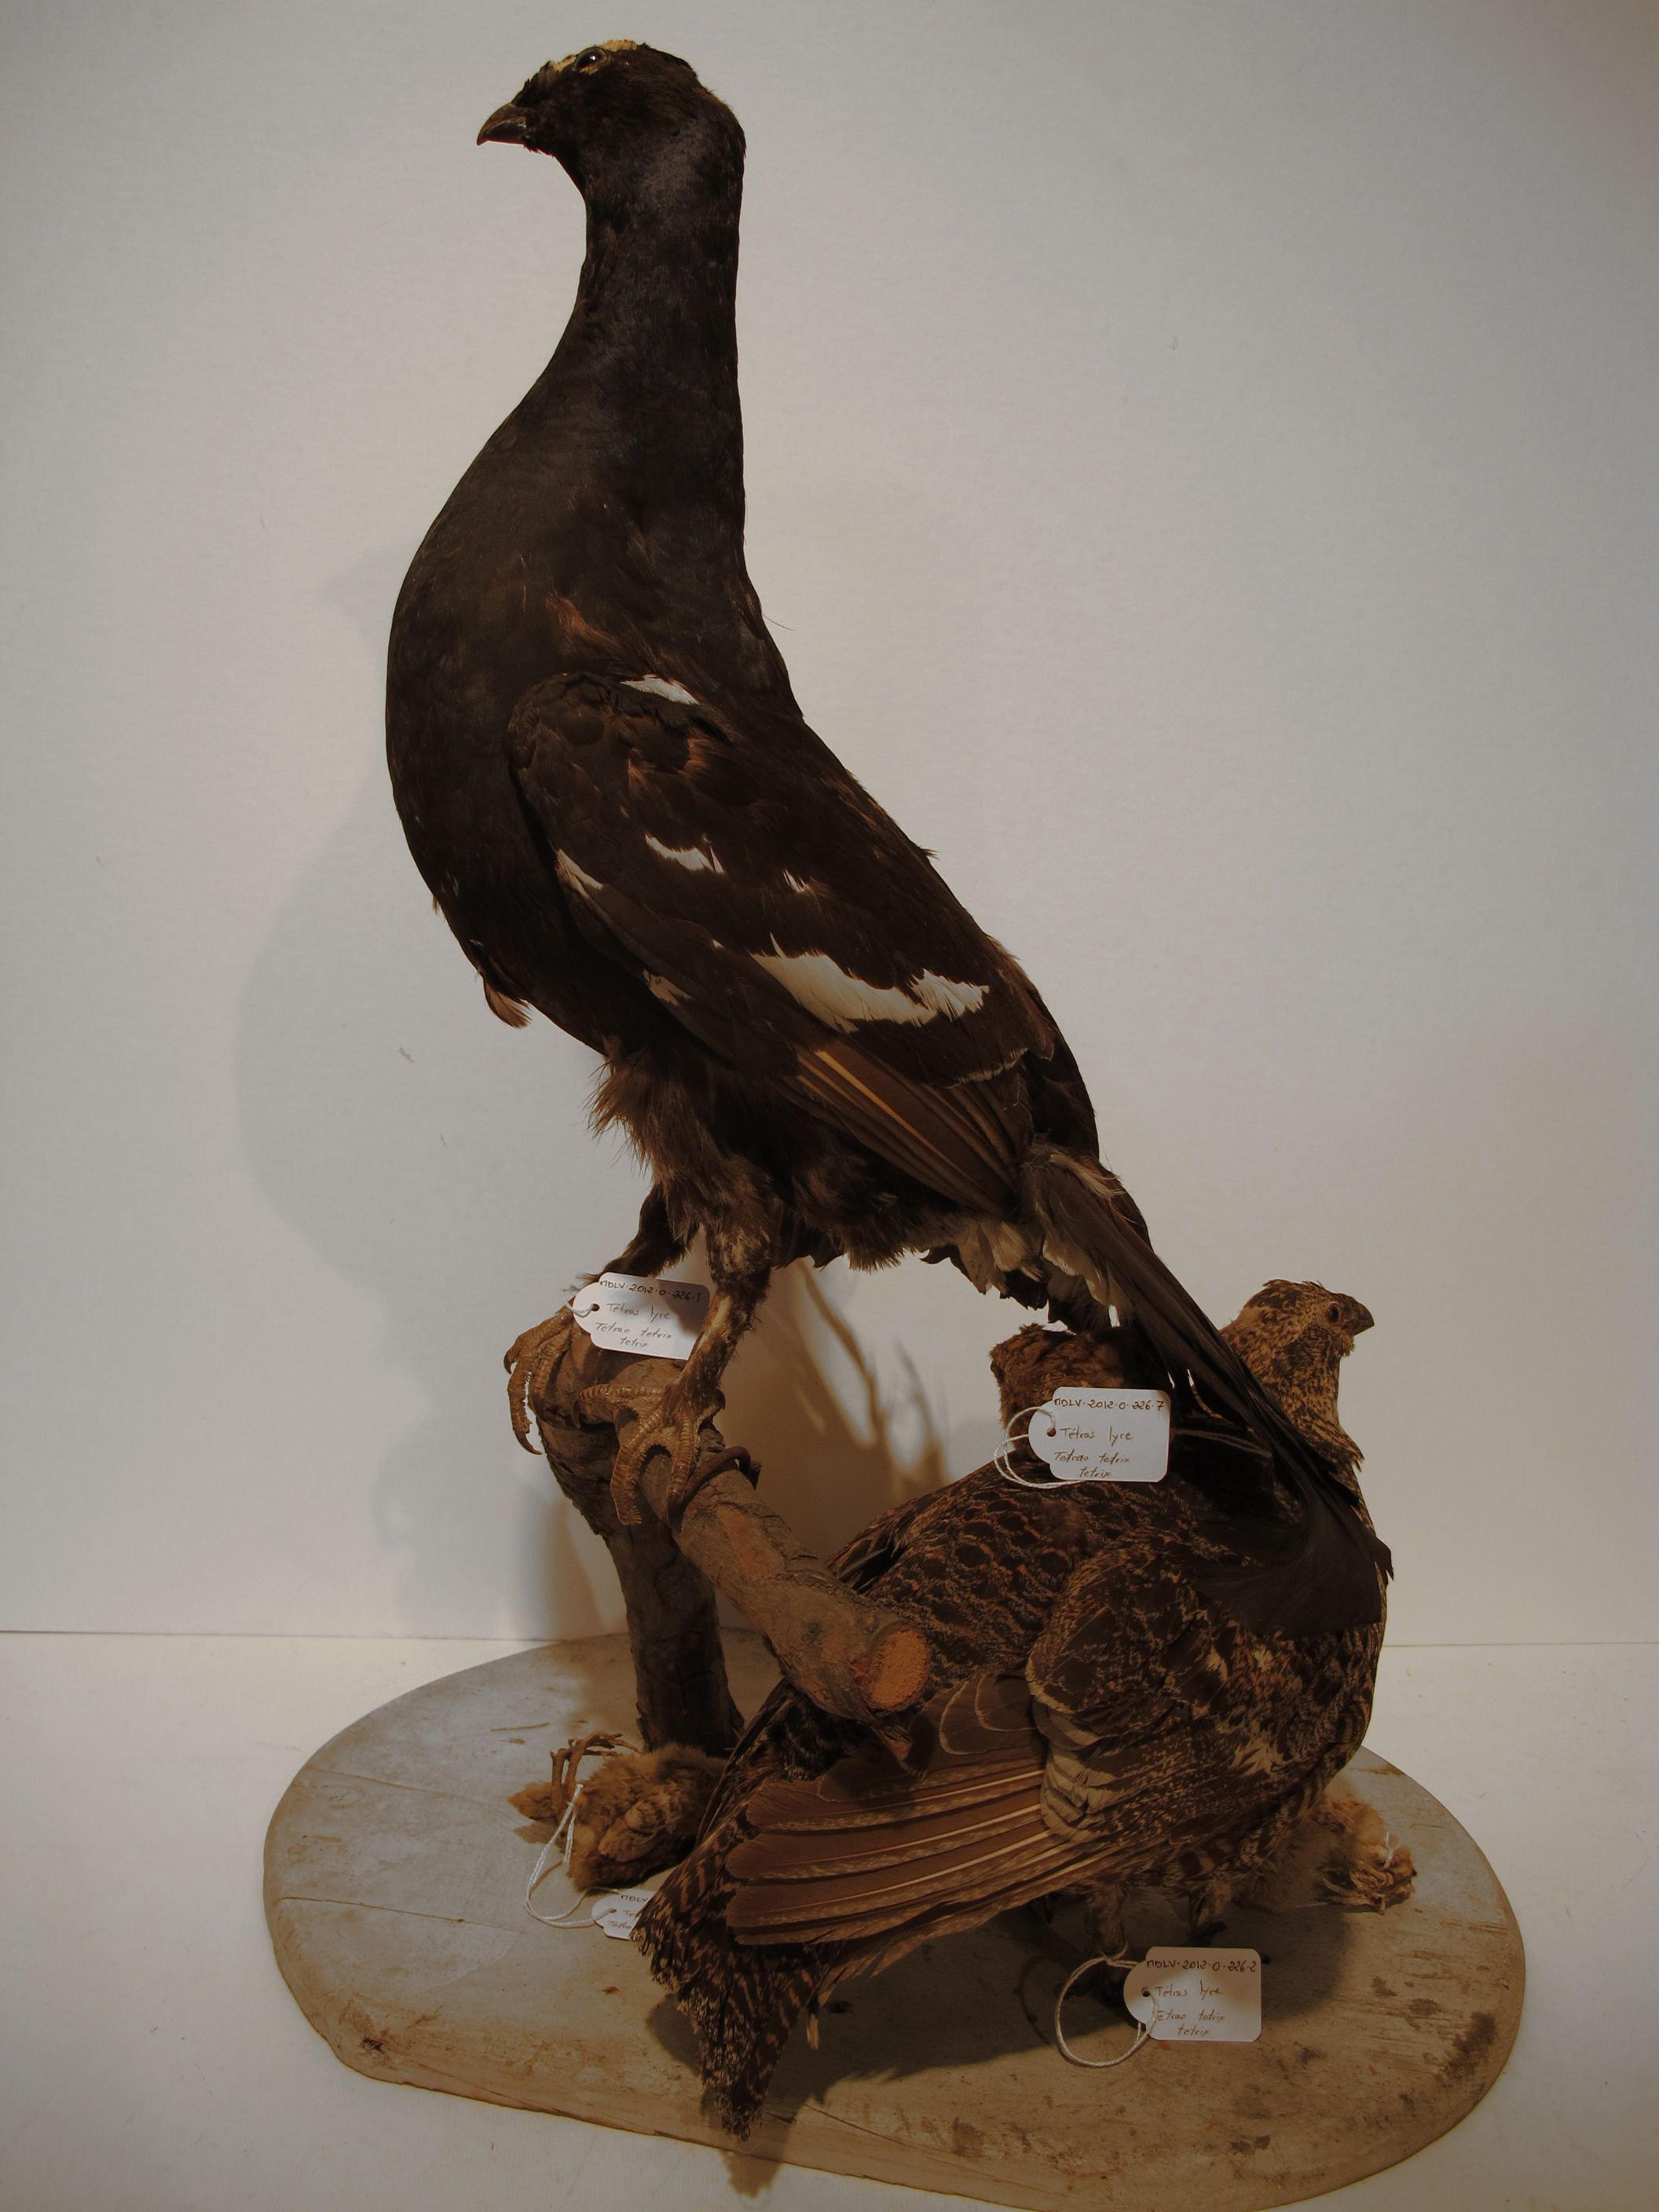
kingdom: Animalia
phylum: Chordata
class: Aves
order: Galliformes
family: Phasianidae
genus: Lyrurus
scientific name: Lyrurus tetrix
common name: Eurasian Black Grouse
